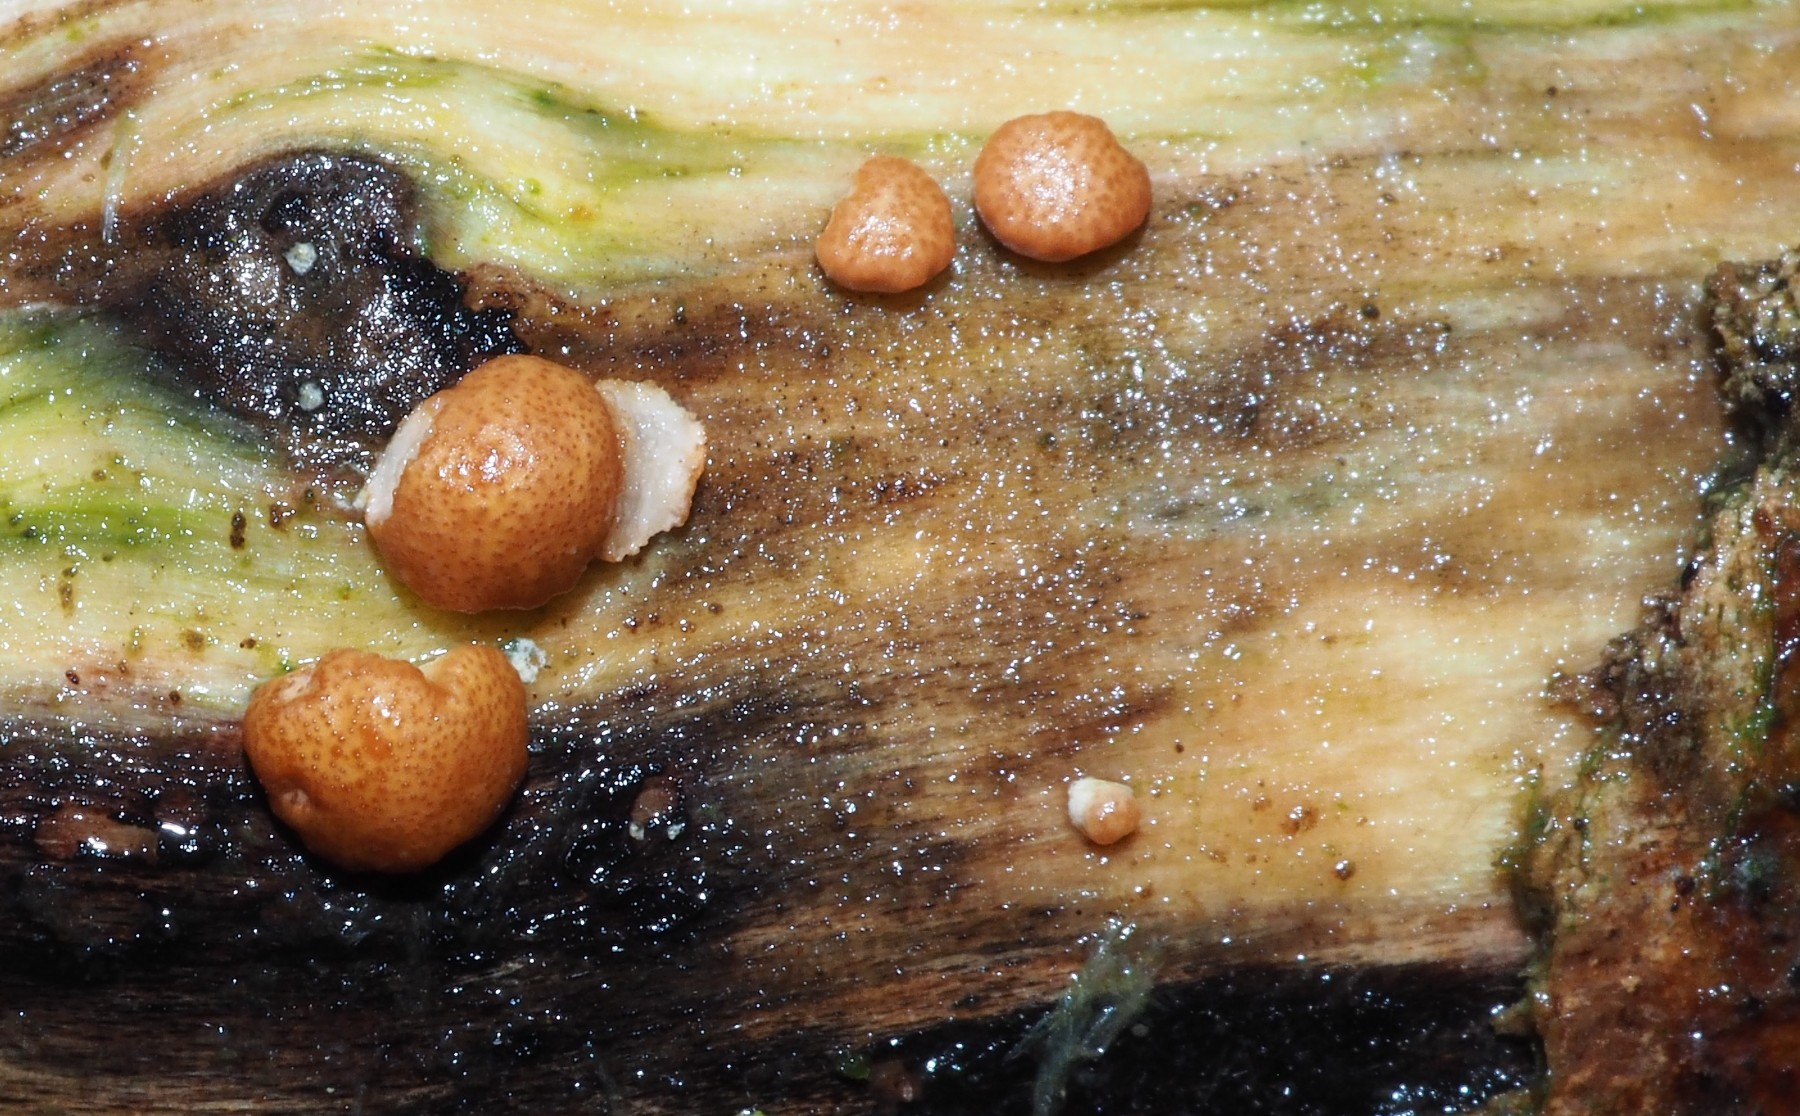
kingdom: Fungi
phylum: Ascomycota
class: Sordariomycetes
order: Hypocreales
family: Hypocreaceae
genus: Trichoderma
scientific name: Trichoderma europaeum
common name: rosabrun kødkerne
